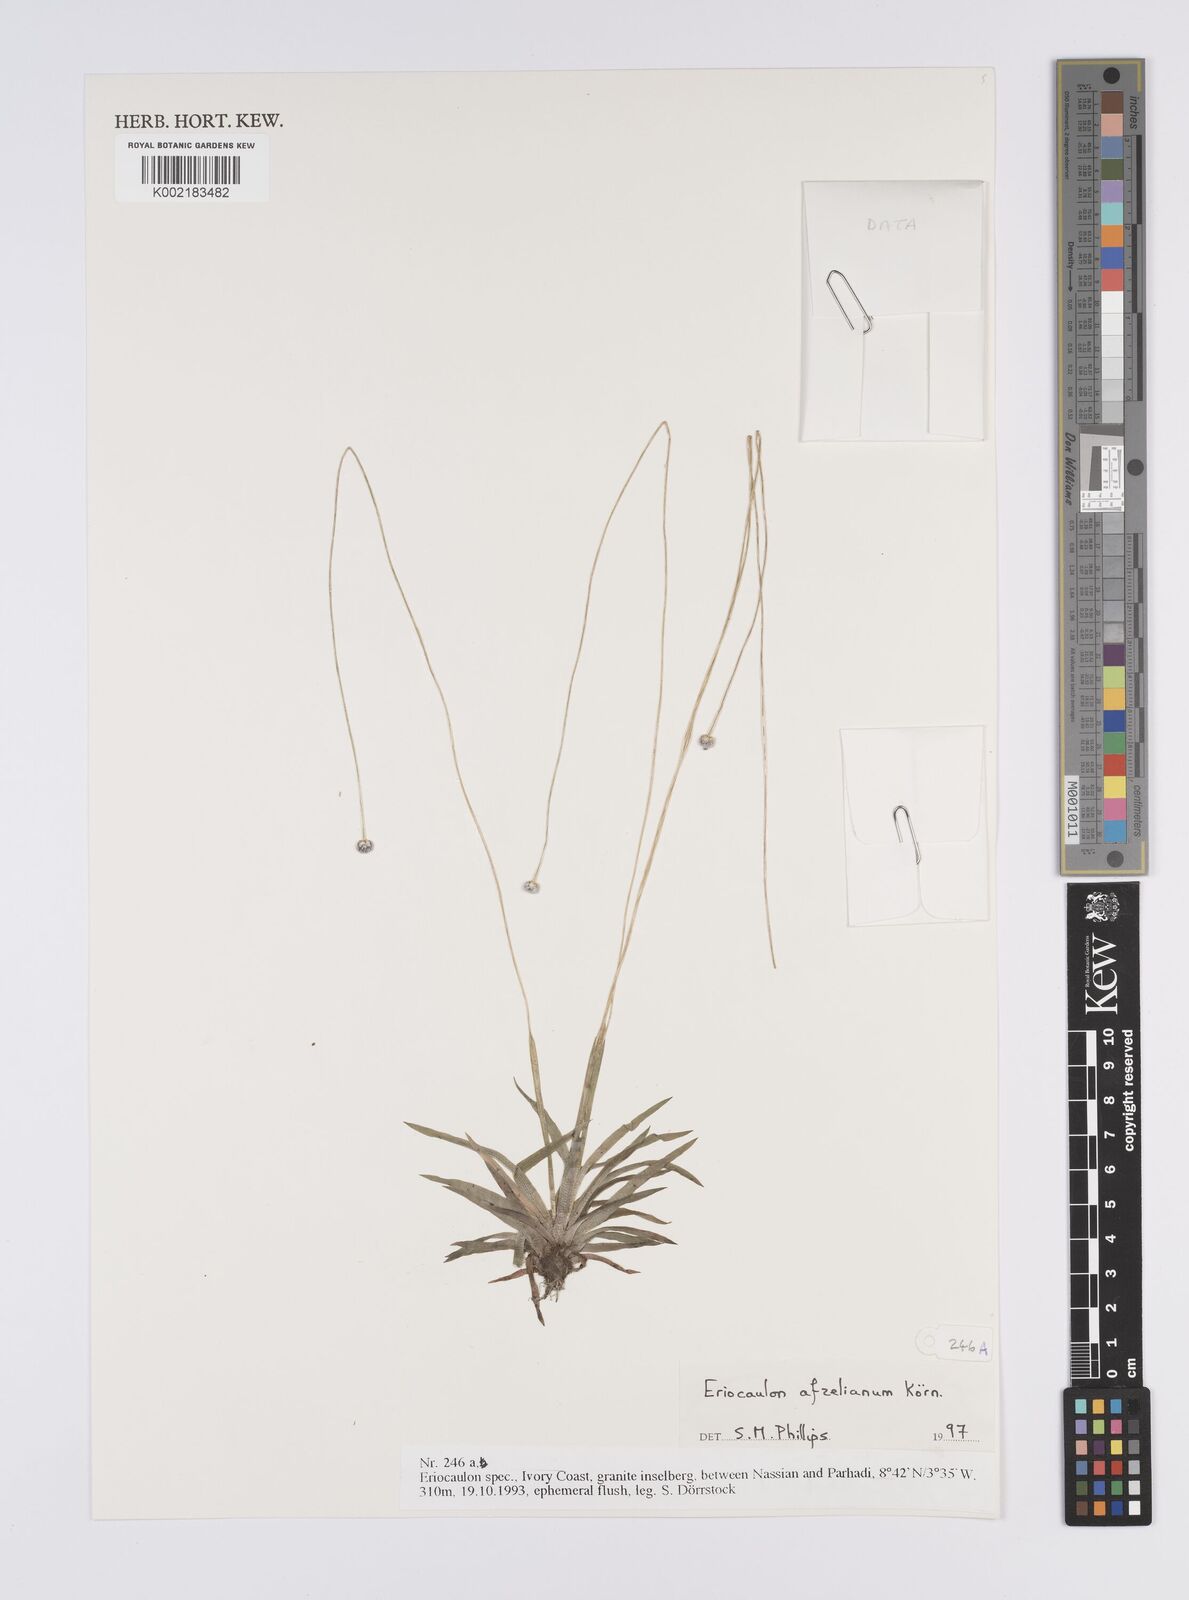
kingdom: Plantae
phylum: Tracheophyta
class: Liliopsida
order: Poales
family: Eriocaulaceae
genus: Eriocaulon
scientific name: Eriocaulon afzelianum
